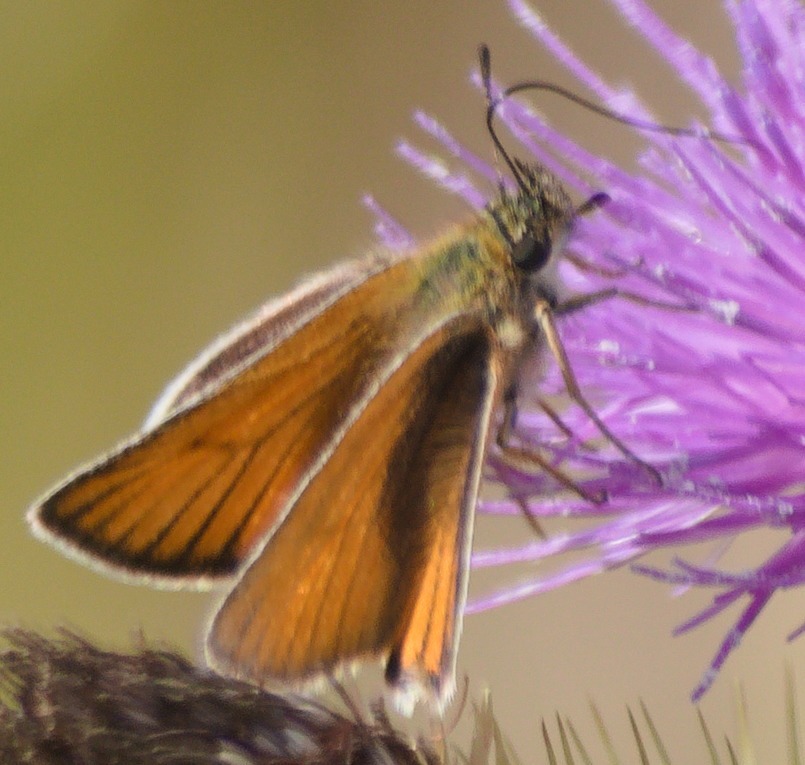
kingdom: Animalia
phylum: Arthropoda
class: Insecta
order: Lepidoptera
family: Hesperiidae
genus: Thymelicus
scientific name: Thymelicus lineola
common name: Stregbredpande
